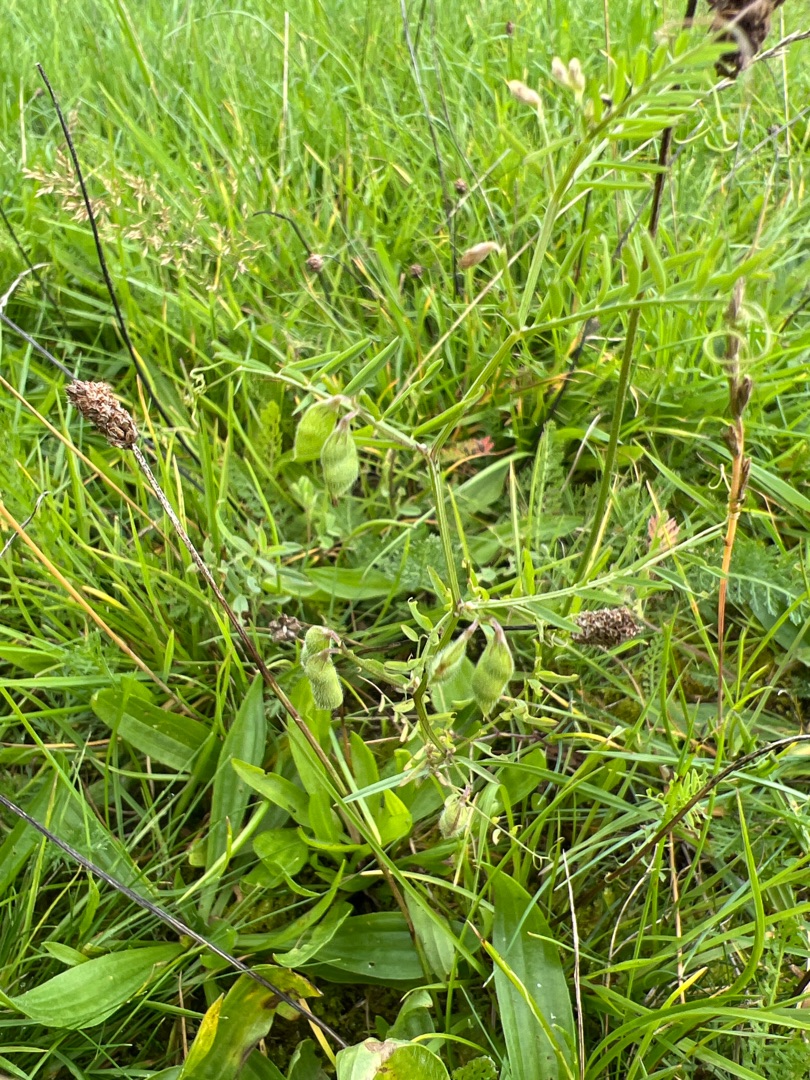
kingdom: Plantae
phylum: Tracheophyta
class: Magnoliopsida
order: Fabales
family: Fabaceae
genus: Vicia
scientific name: Vicia hirsuta
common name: Tofrøet vikke
